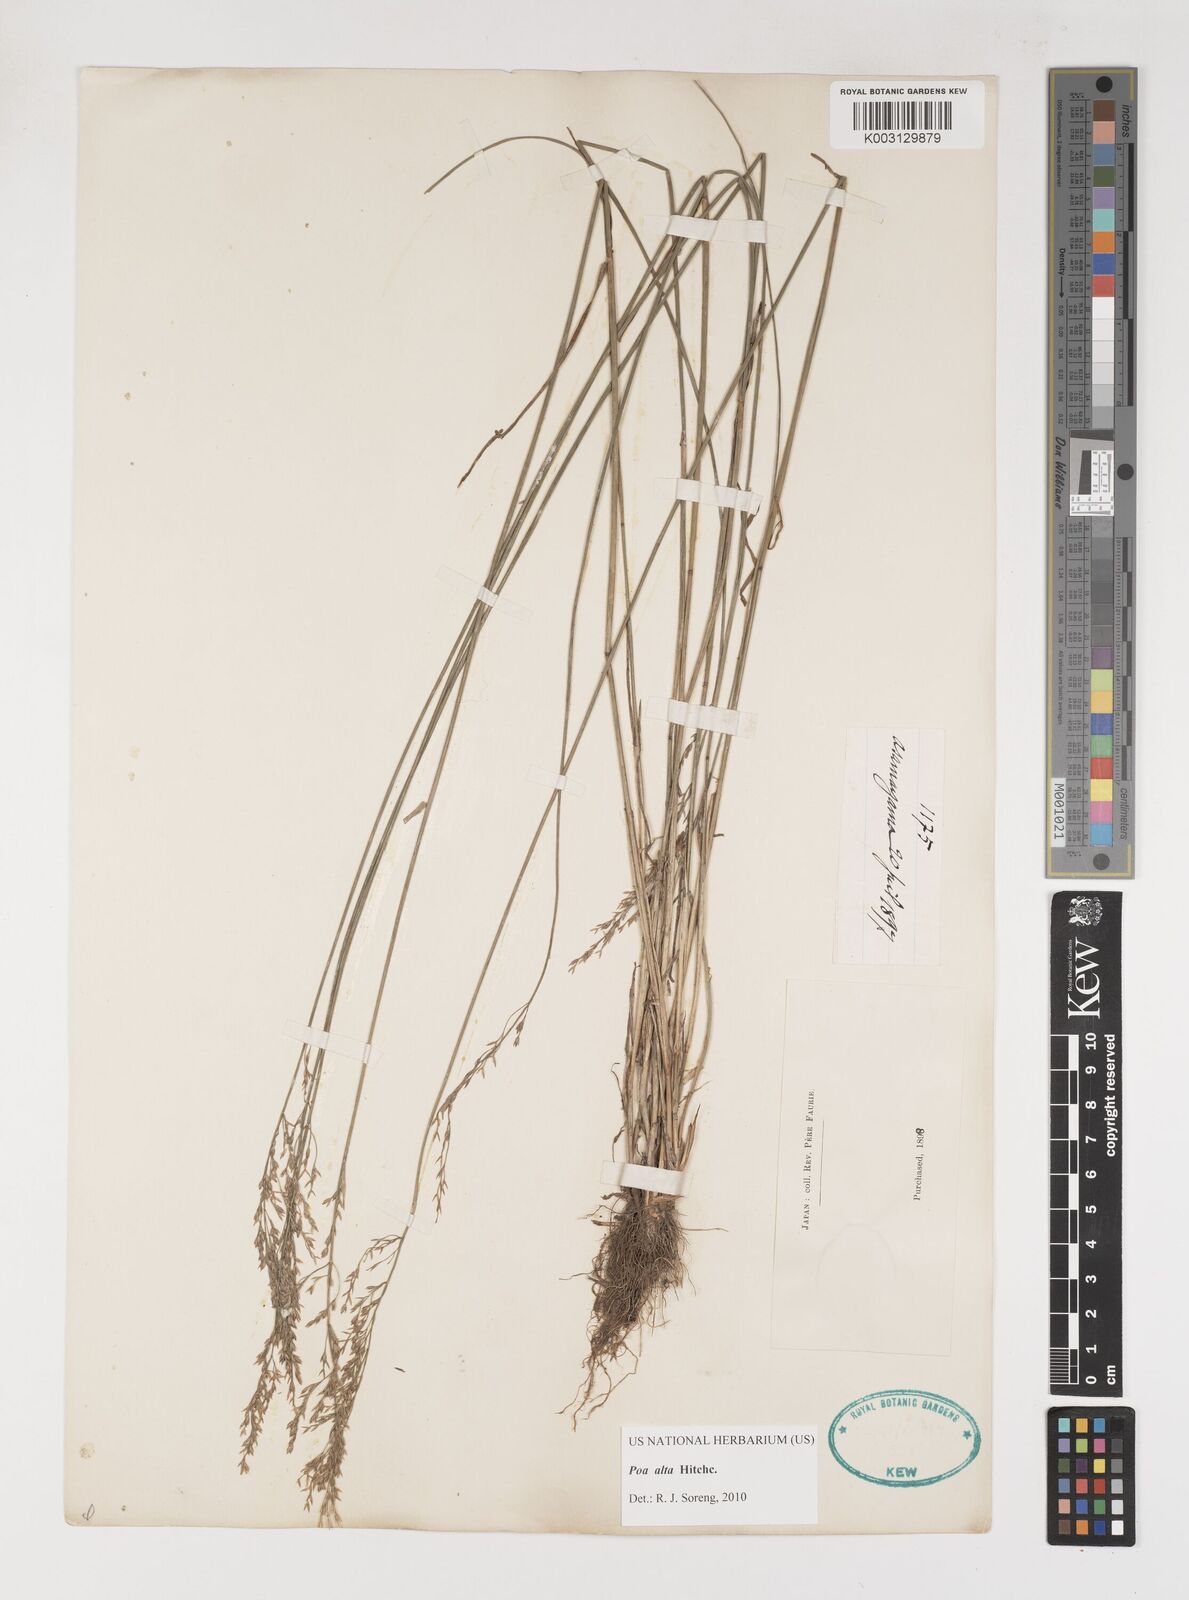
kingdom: Plantae
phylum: Tracheophyta
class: Liliopsida
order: Poales
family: Poaceae
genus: Poa
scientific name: Poa alta
